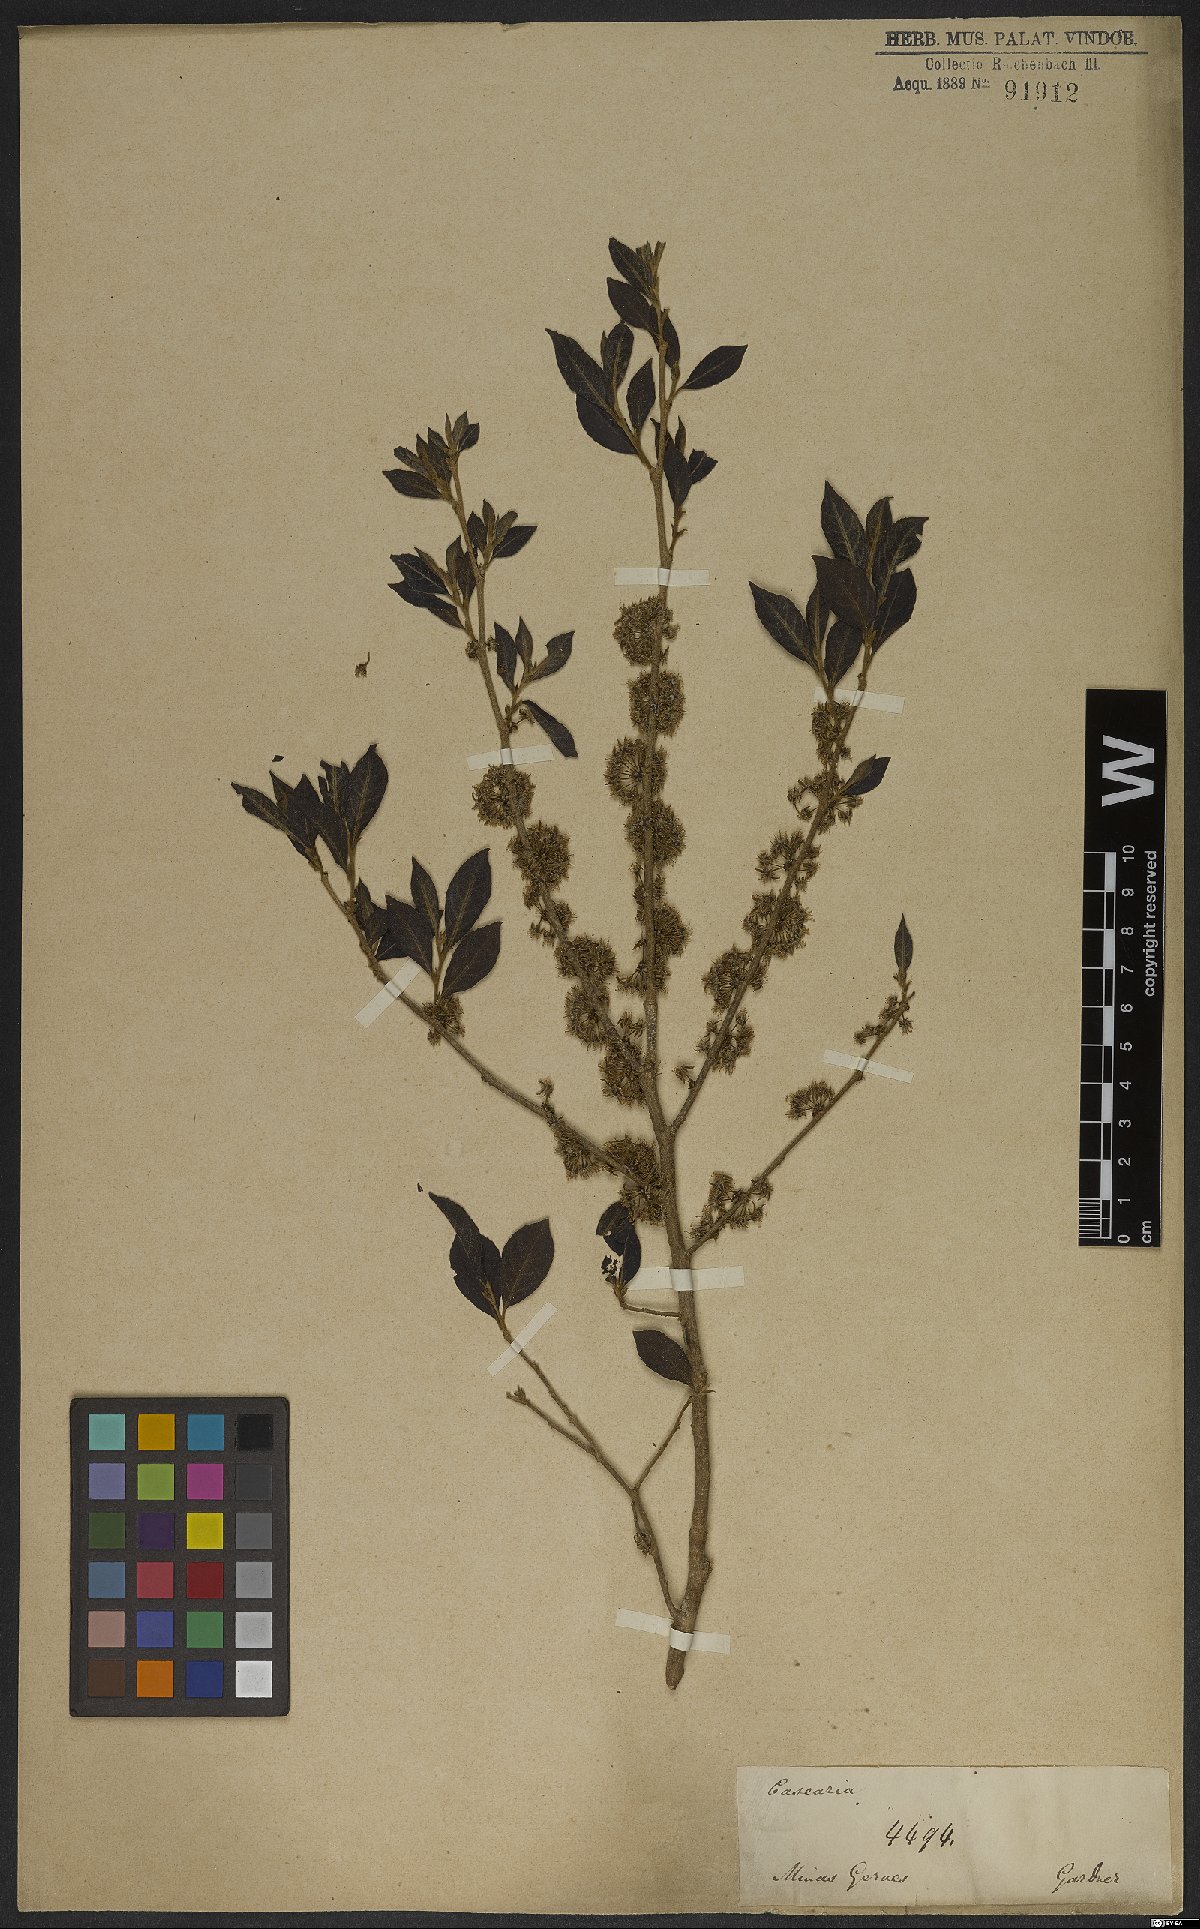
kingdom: Plantae
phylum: Tracheophyta
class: Magnoliopsida
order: Malpighiales
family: Salicaceae
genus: Casearia
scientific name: Casearia lasiophylla
